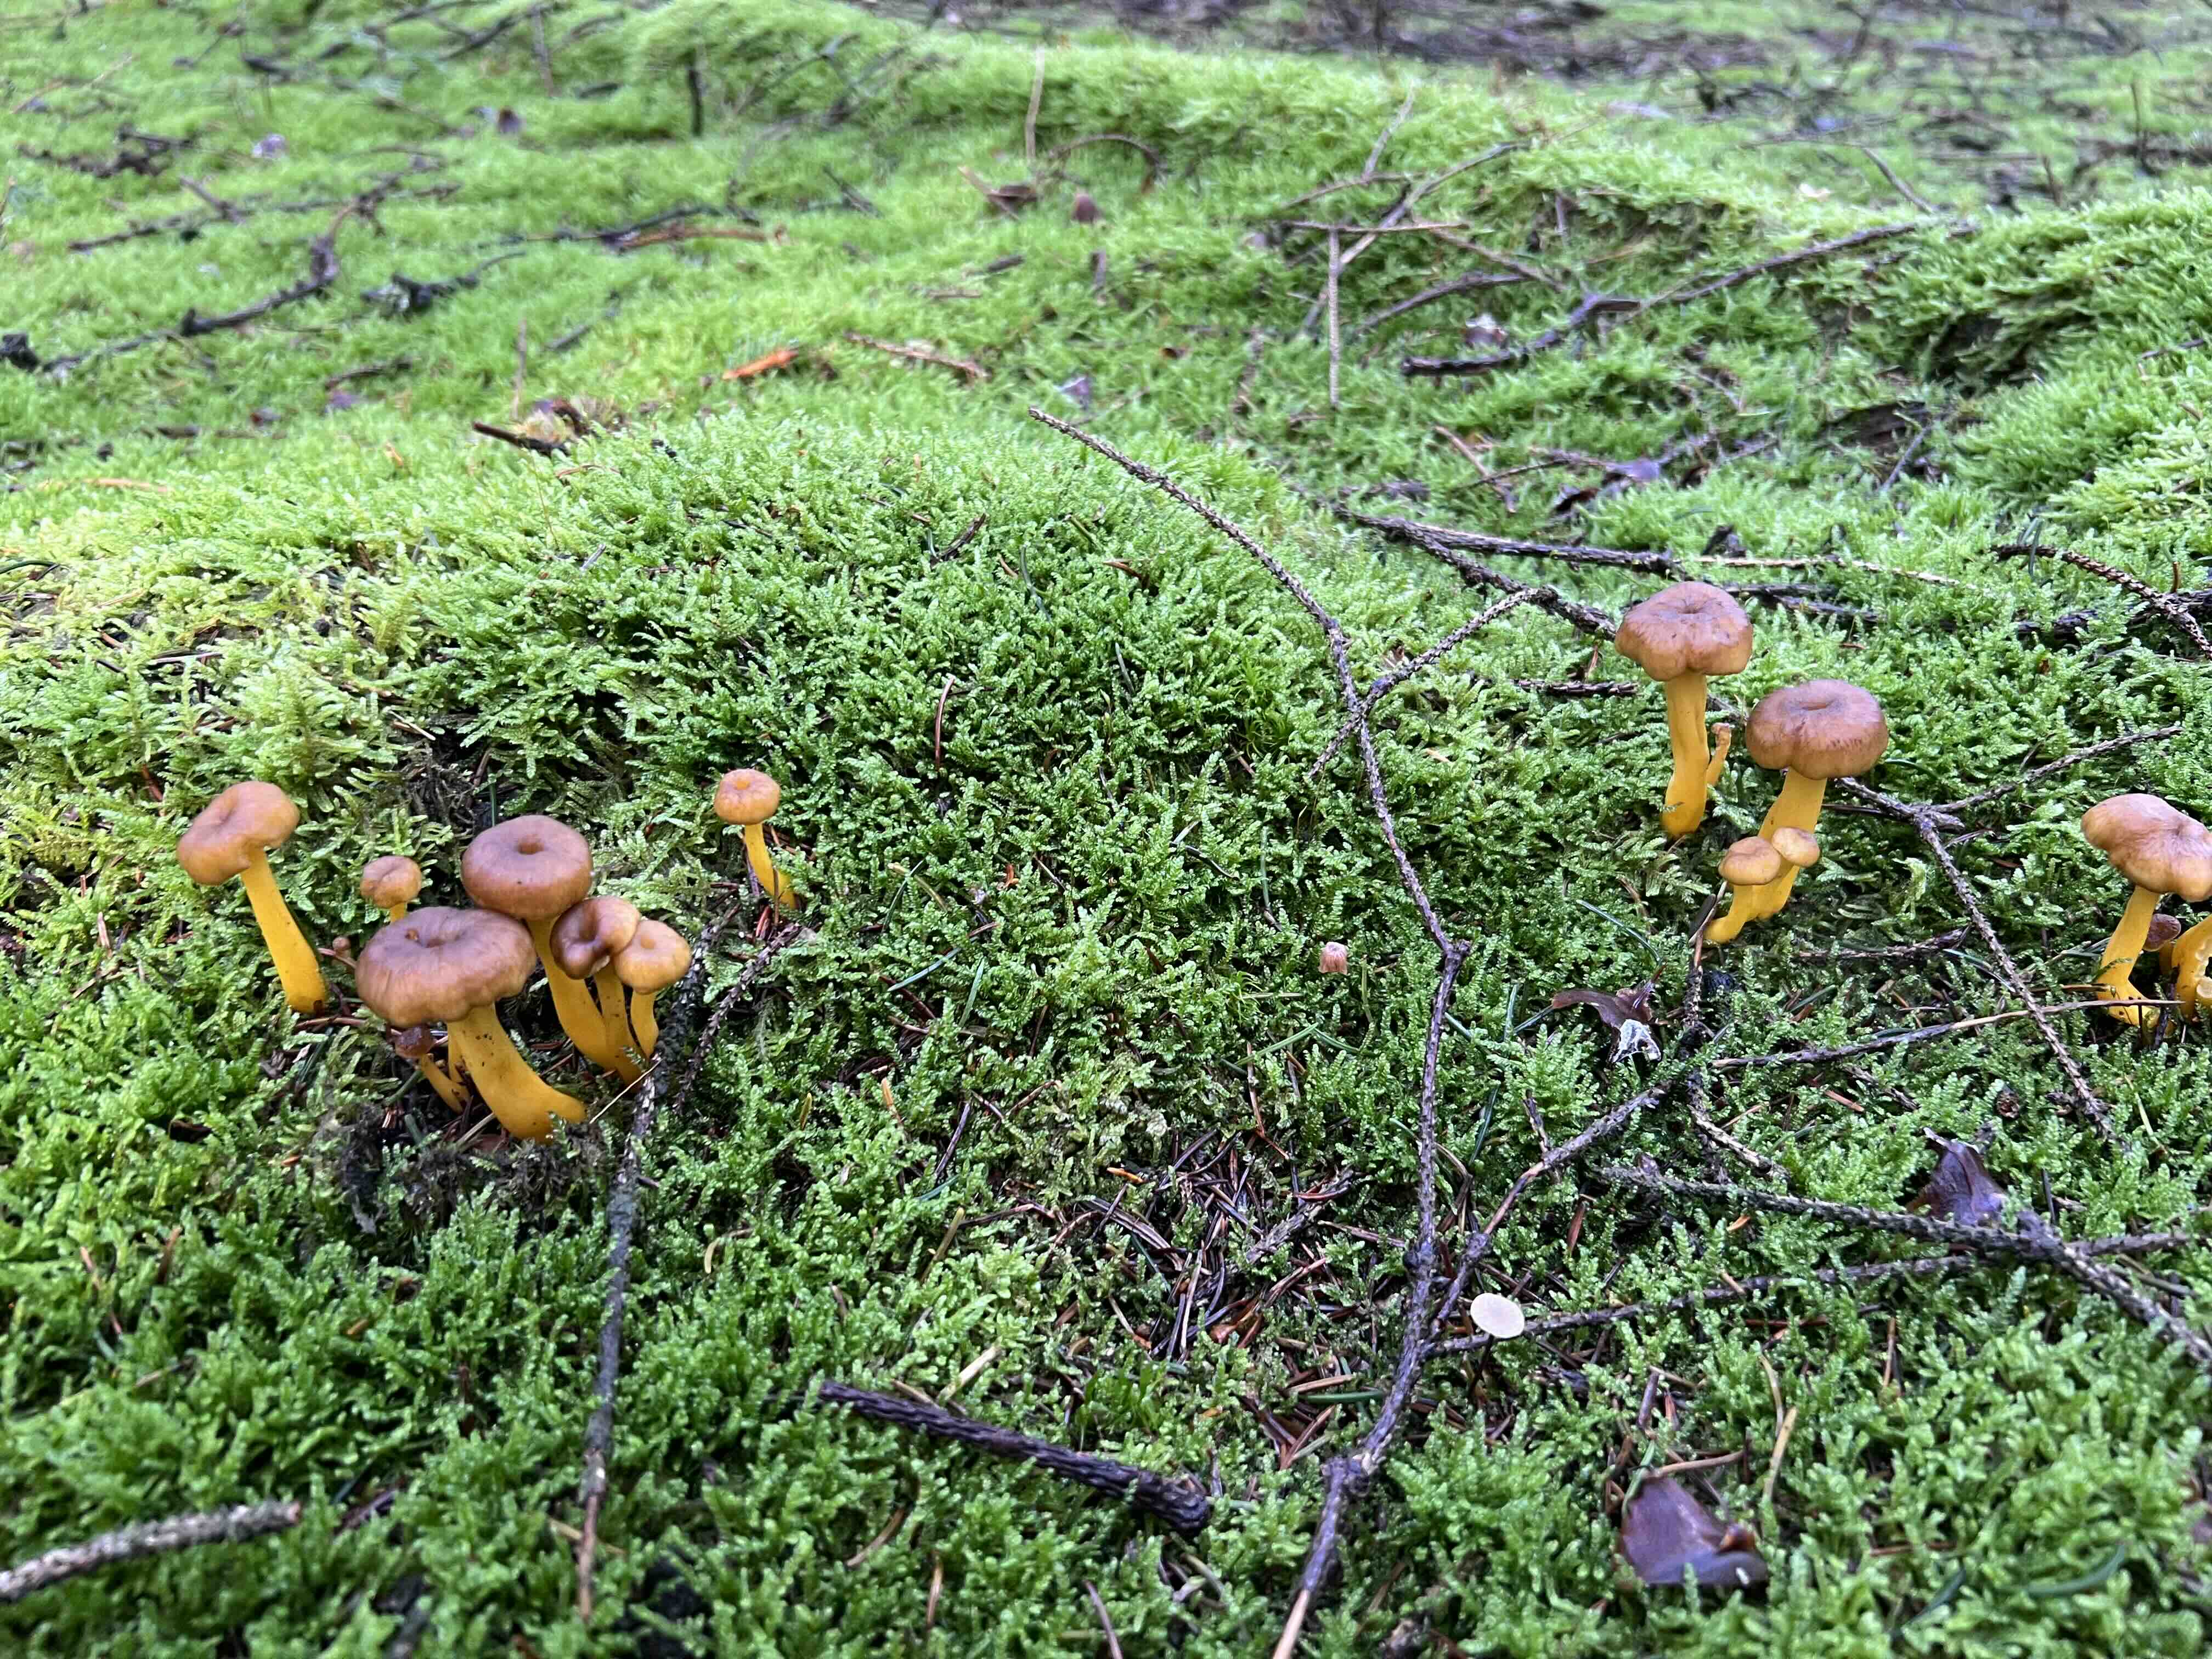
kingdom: Fungi
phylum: Basidiomycota
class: Agaricomycetes
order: Cantharellales
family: Hydnaceae
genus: Craterellus
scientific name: Craterellus tubaeformis
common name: tragt-kantarel
